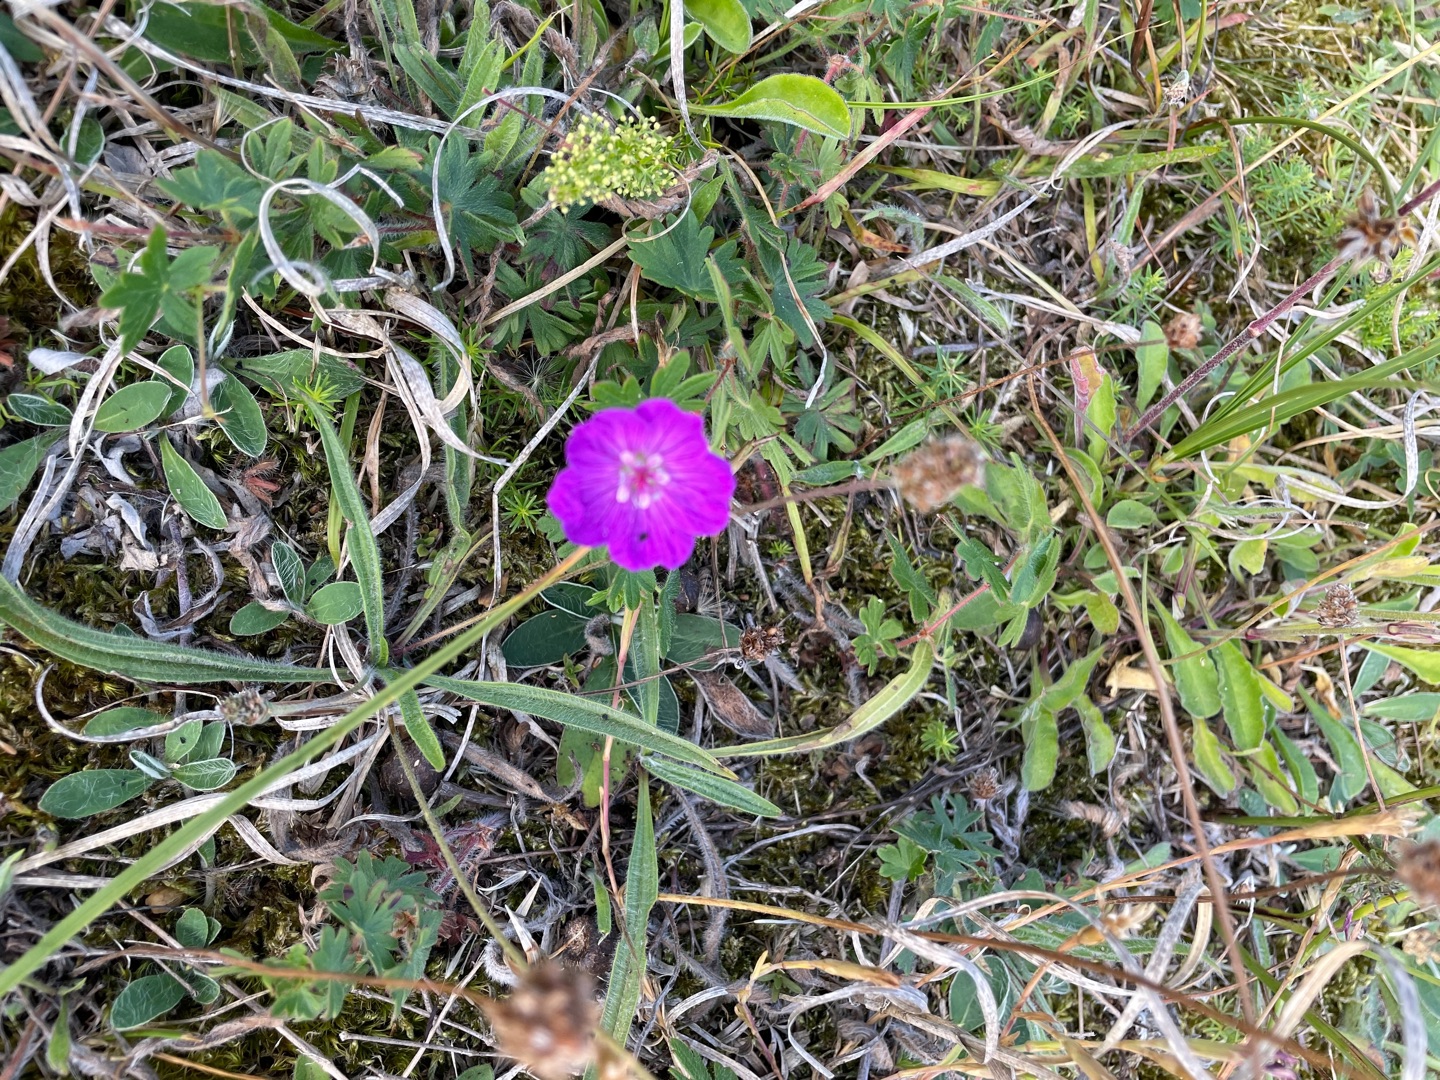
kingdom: Plantae
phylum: Tracheophyta
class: Magnoliopsida
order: Geraniales
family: Geraniaceae
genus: Geranium
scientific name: Geranium sanguineum
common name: Blodrød storkenæb
